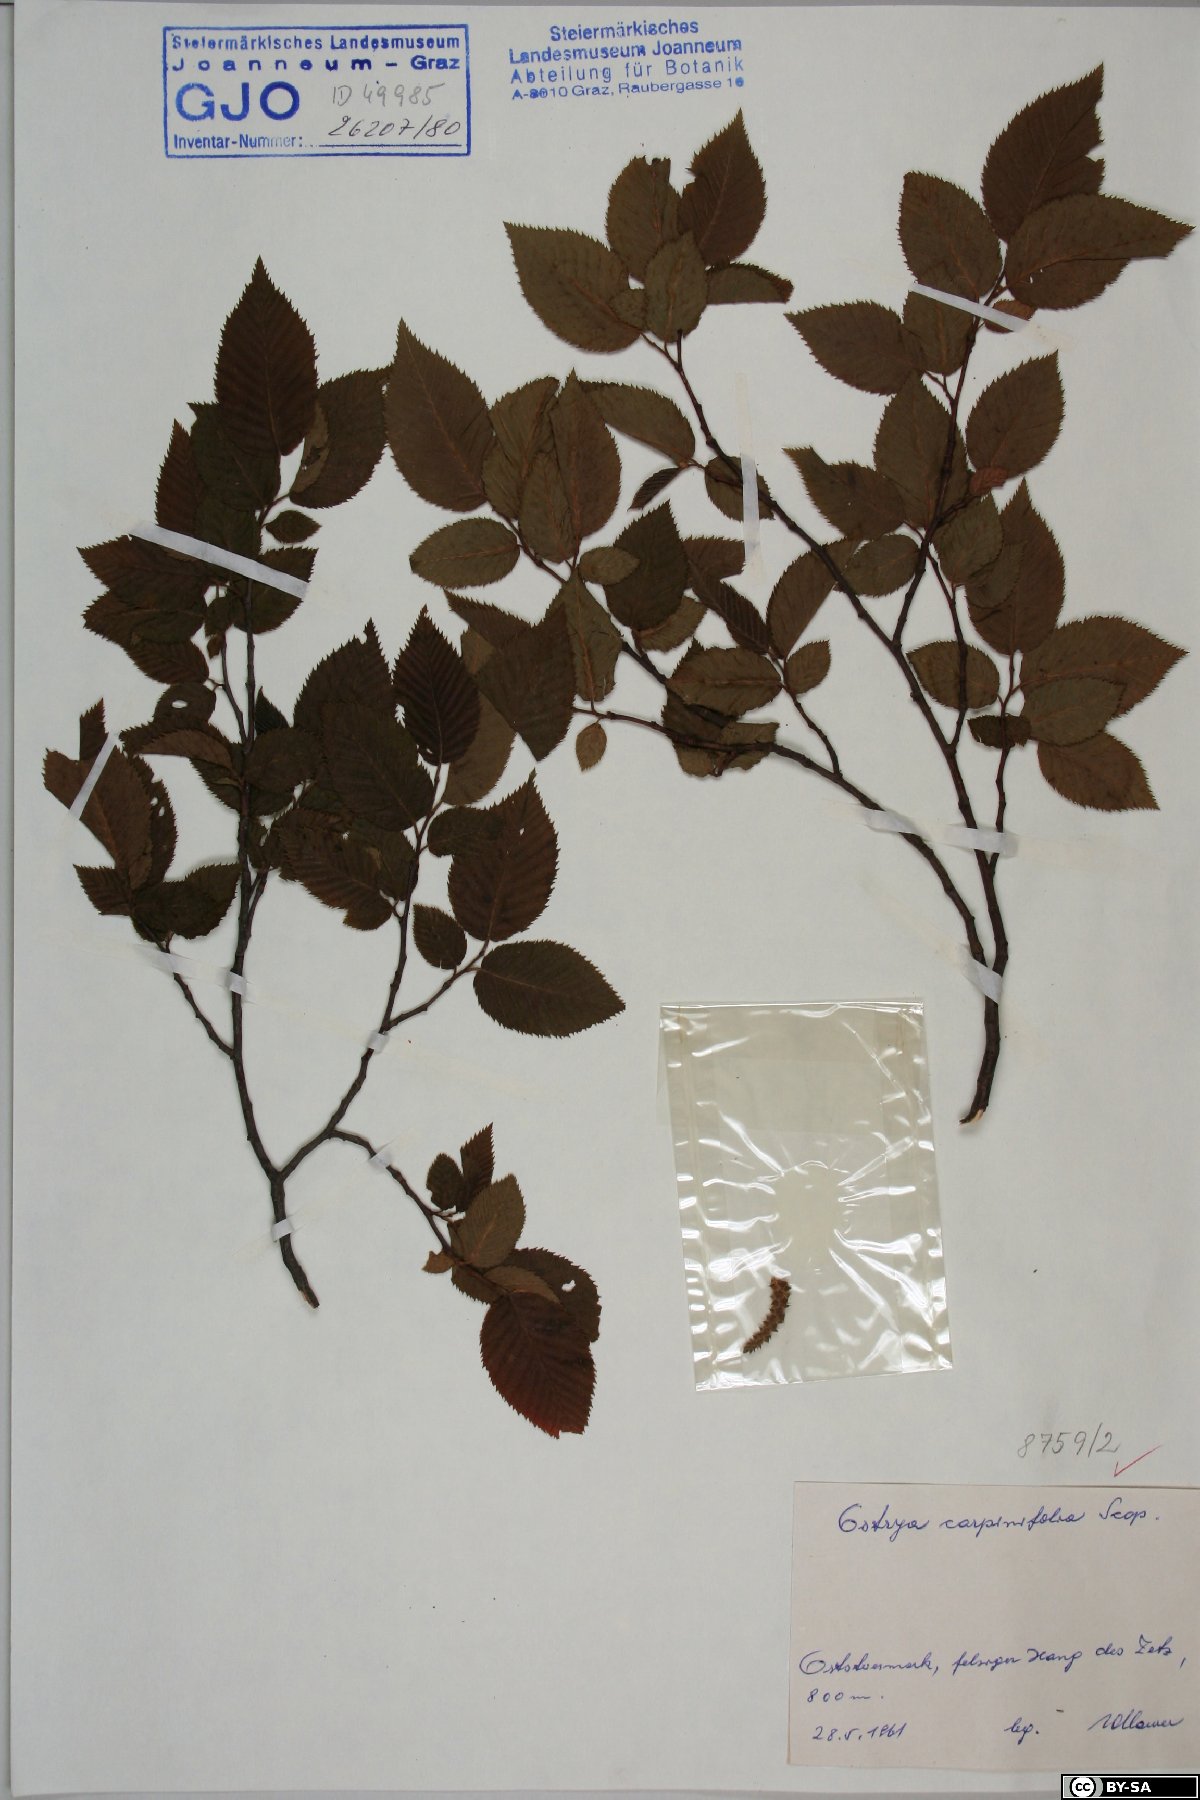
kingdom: Plantae
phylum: Tracheophyta
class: Magnoliopsida
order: Fagales
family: Betulaceae
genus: Ostrya
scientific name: Ostrya carpinifolia
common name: European hop-hornbeam
